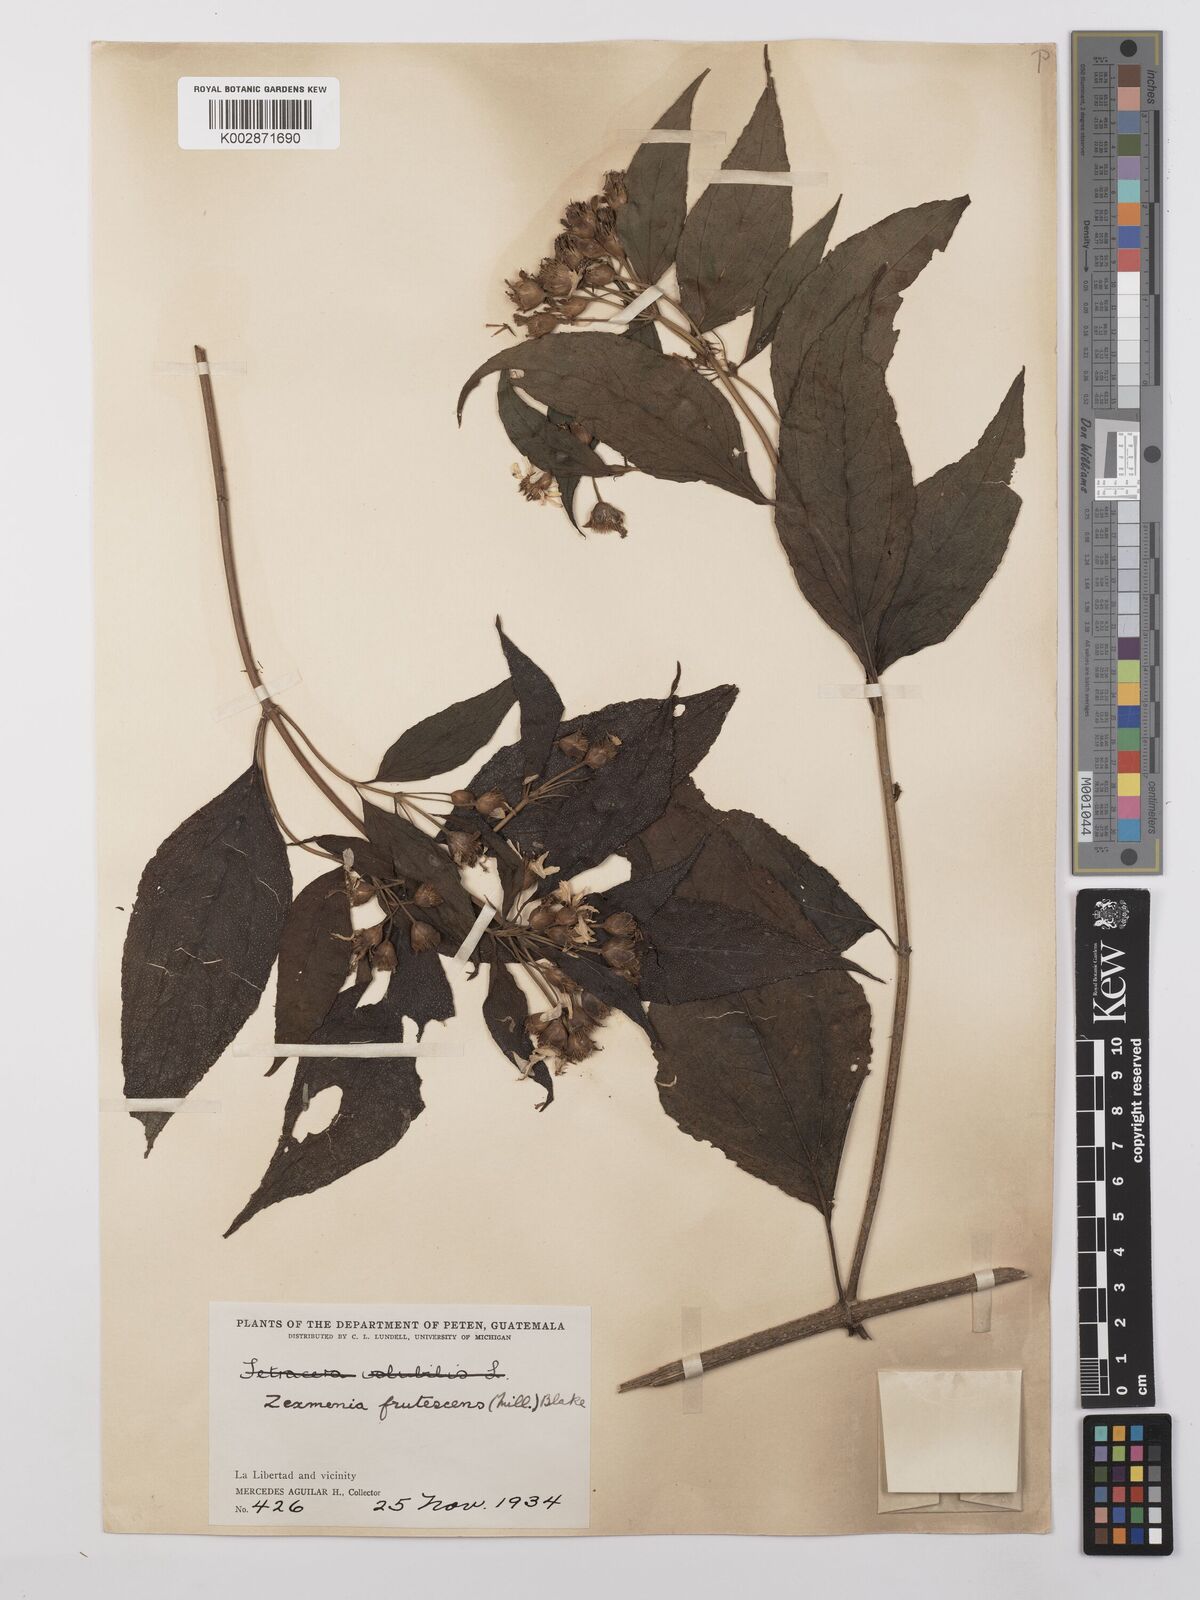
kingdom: Plantae
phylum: Tracheophyta
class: Magnoliopsida
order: Asterales
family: Asteraceae
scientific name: Asteraceae
